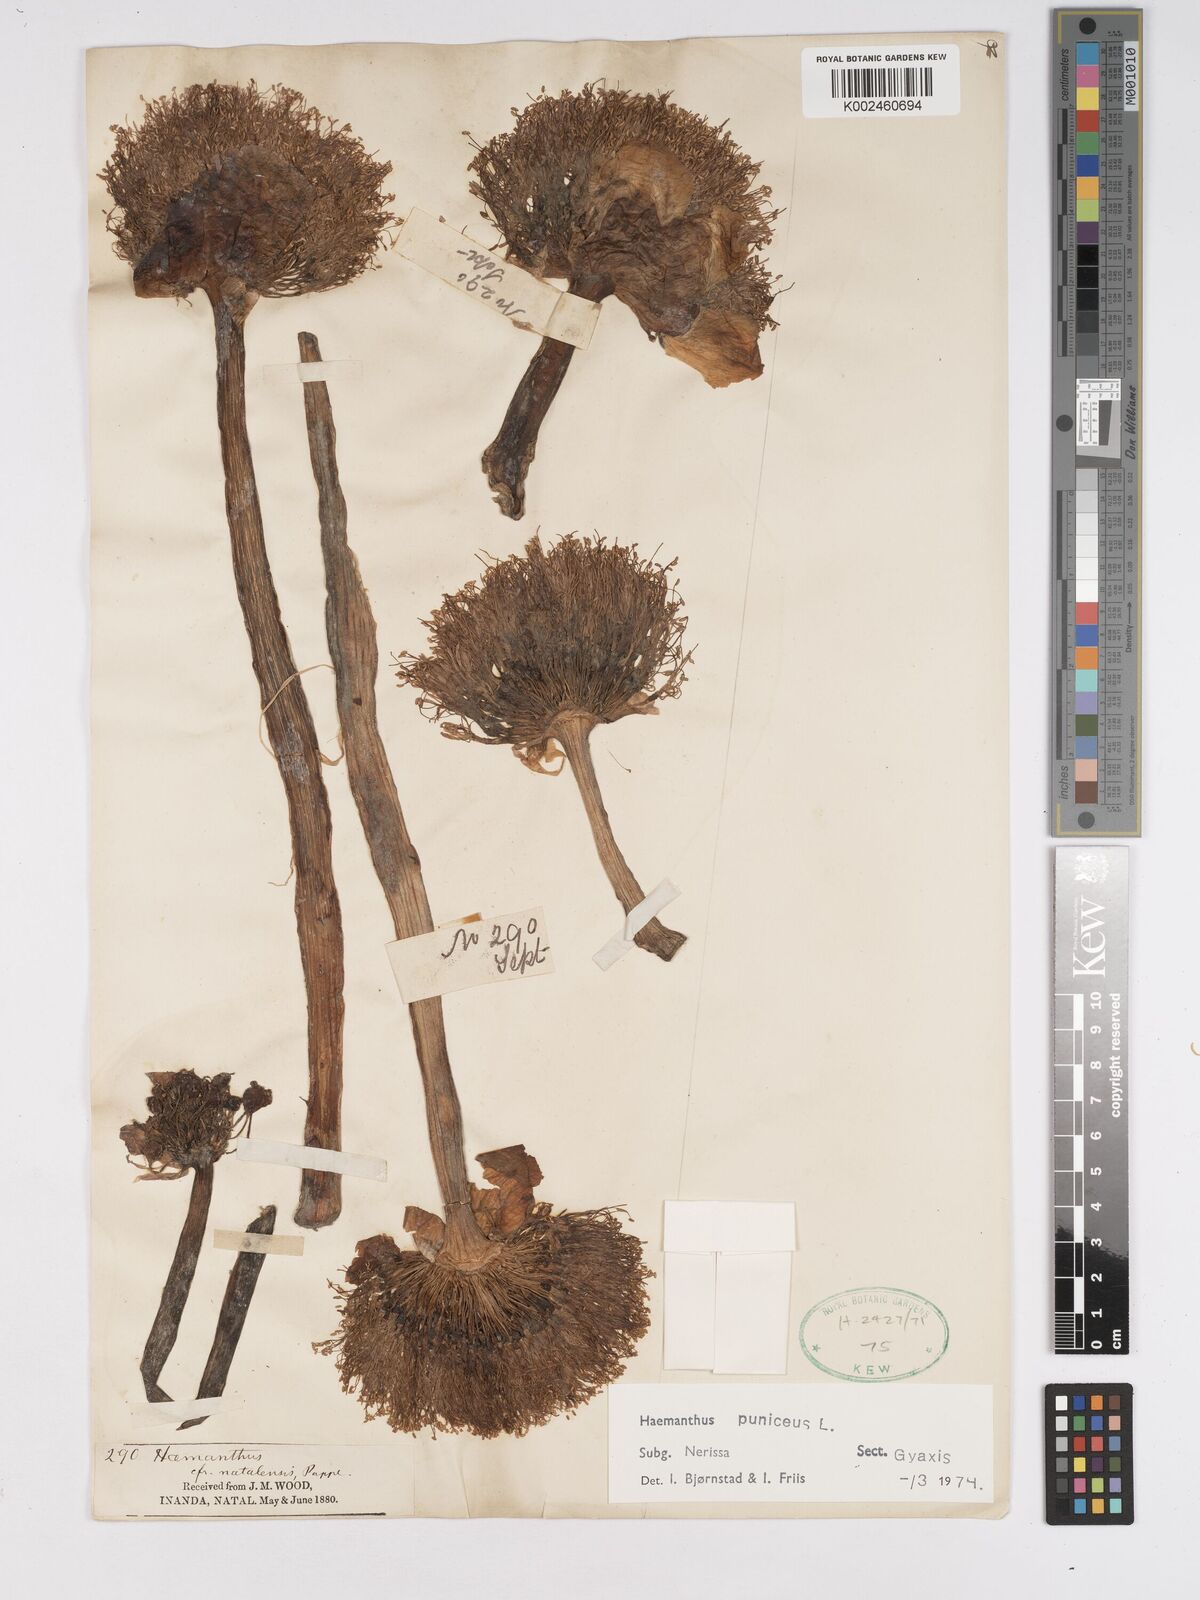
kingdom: Plantae
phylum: Tracheophyta
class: Liliopsida
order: Asparagales
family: Amaryllidaceae
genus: Scadoxus
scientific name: Scadoxus puniceus
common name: Royal-paintbrush
